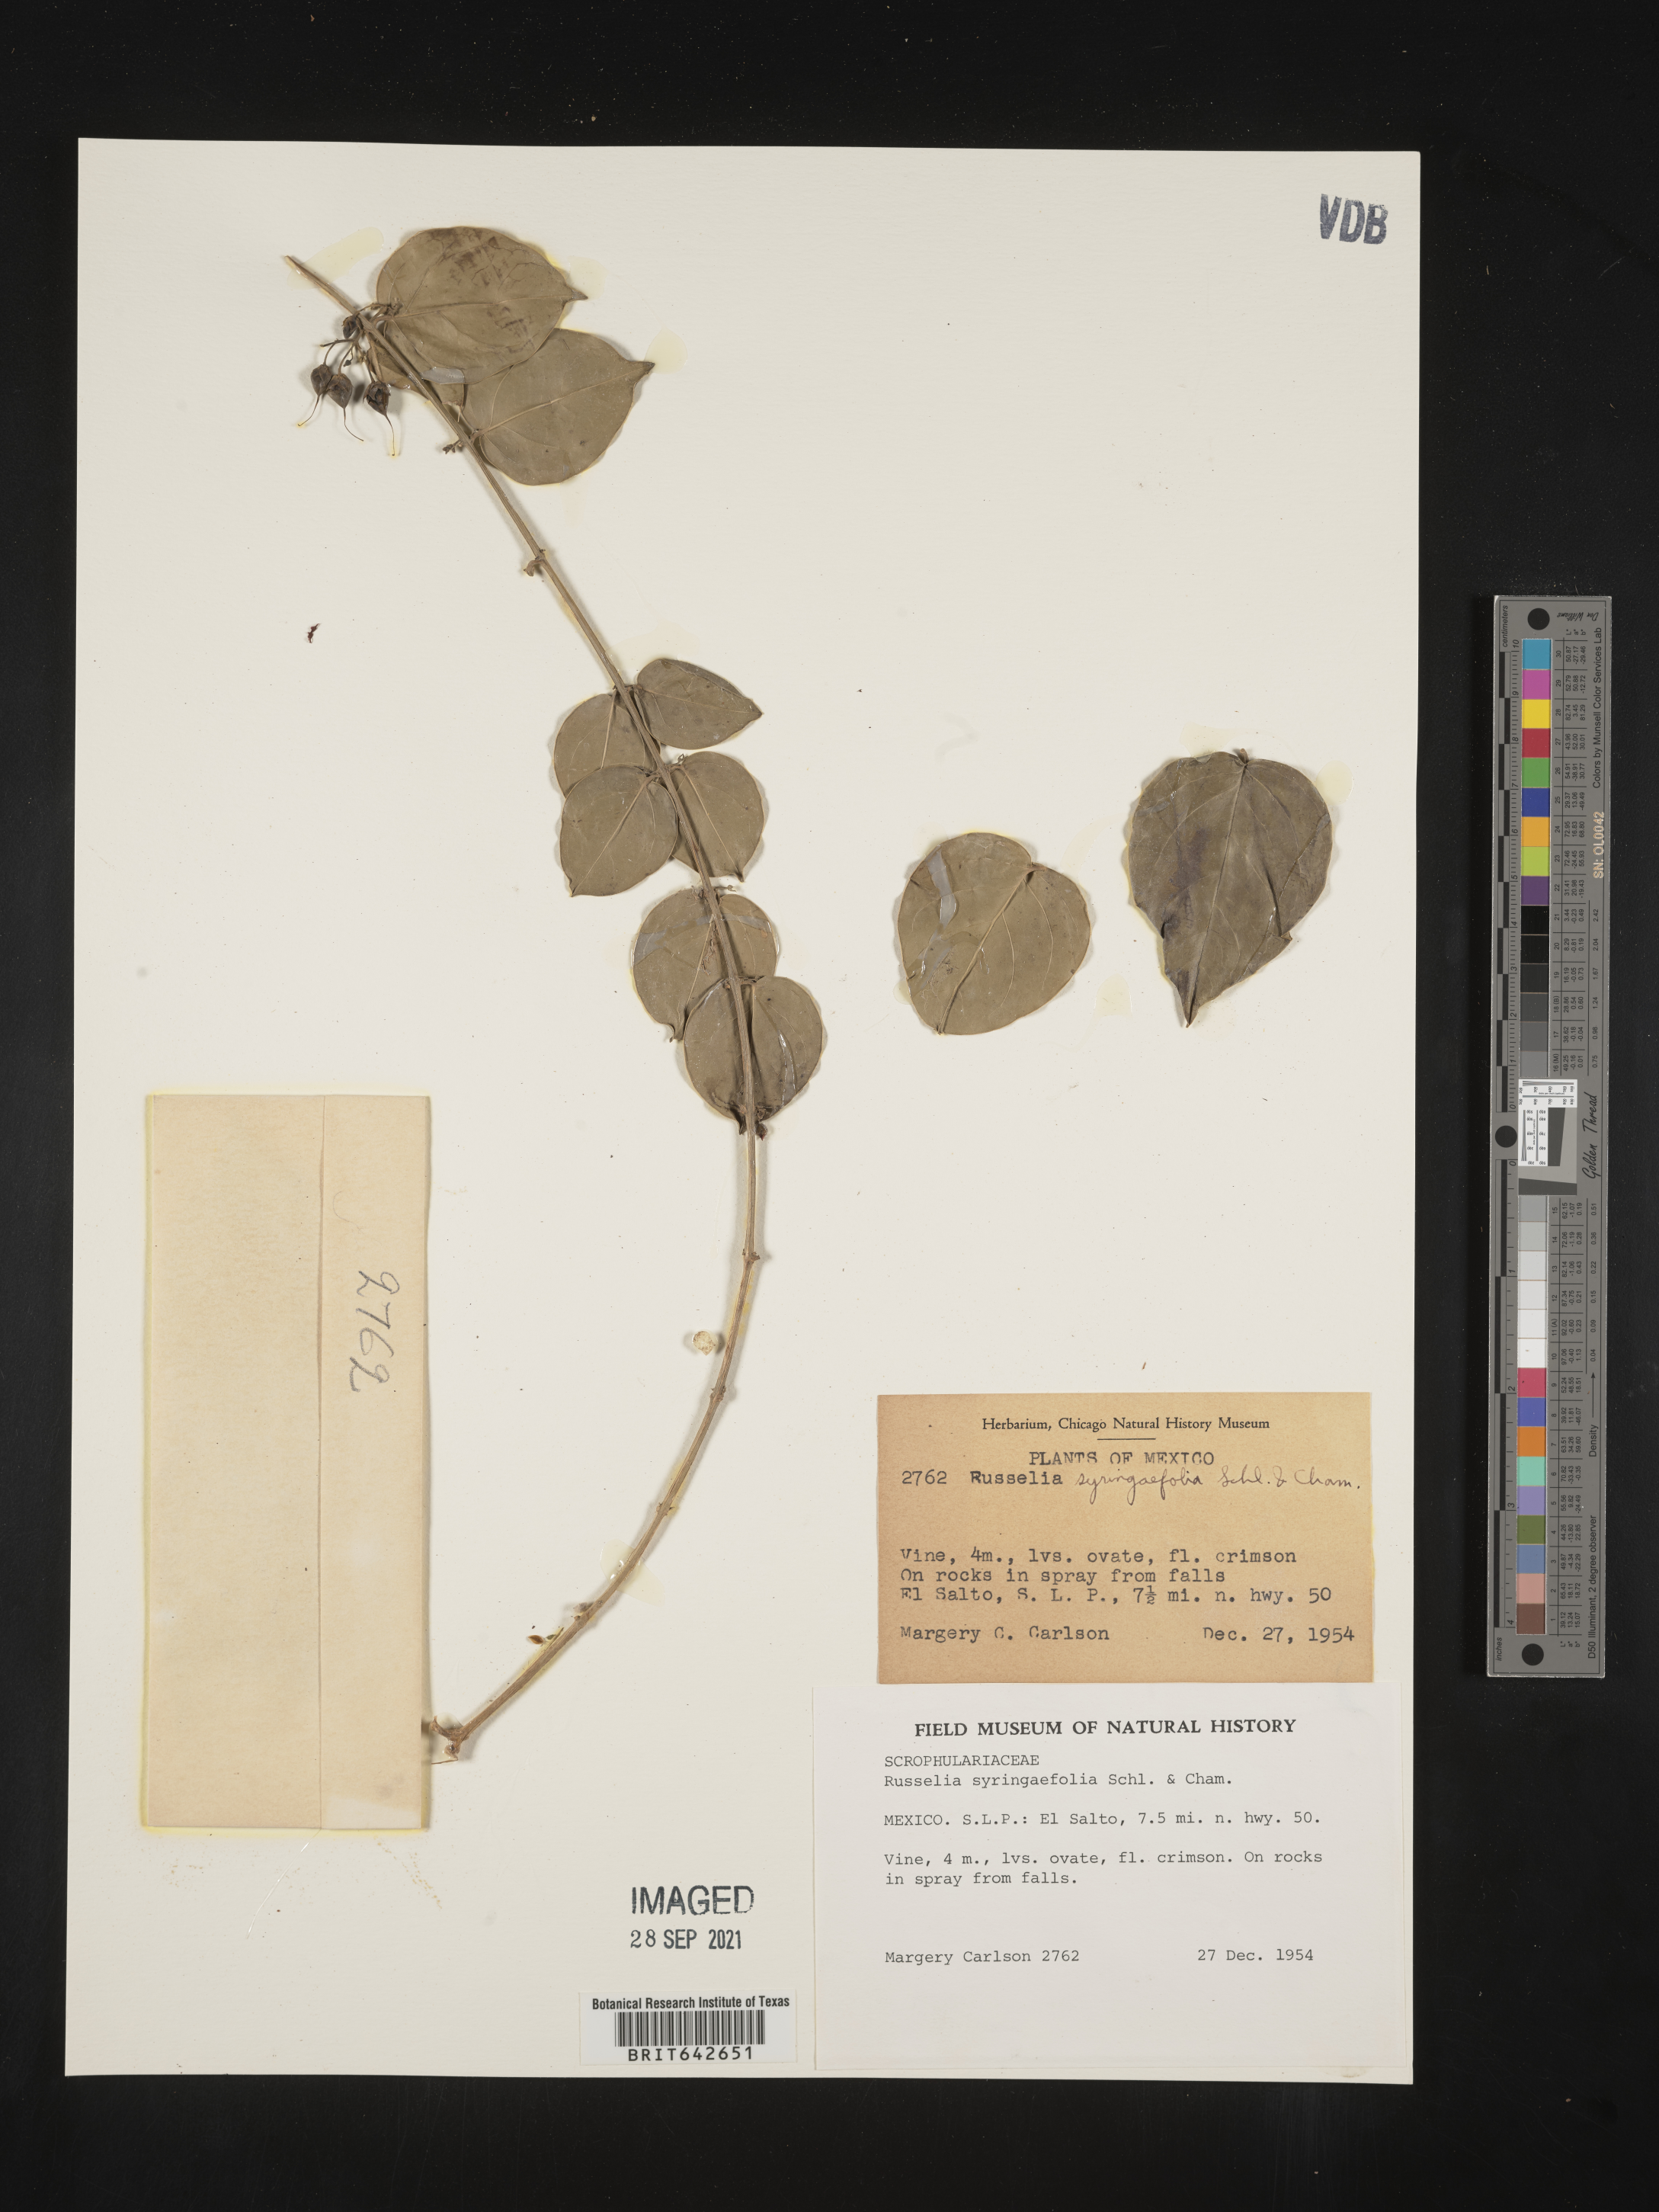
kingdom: Plantae
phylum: Tracheophyta
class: Magnoliopsida
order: Lamiales
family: Plantaginaceae
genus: Russelia
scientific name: Russelia
